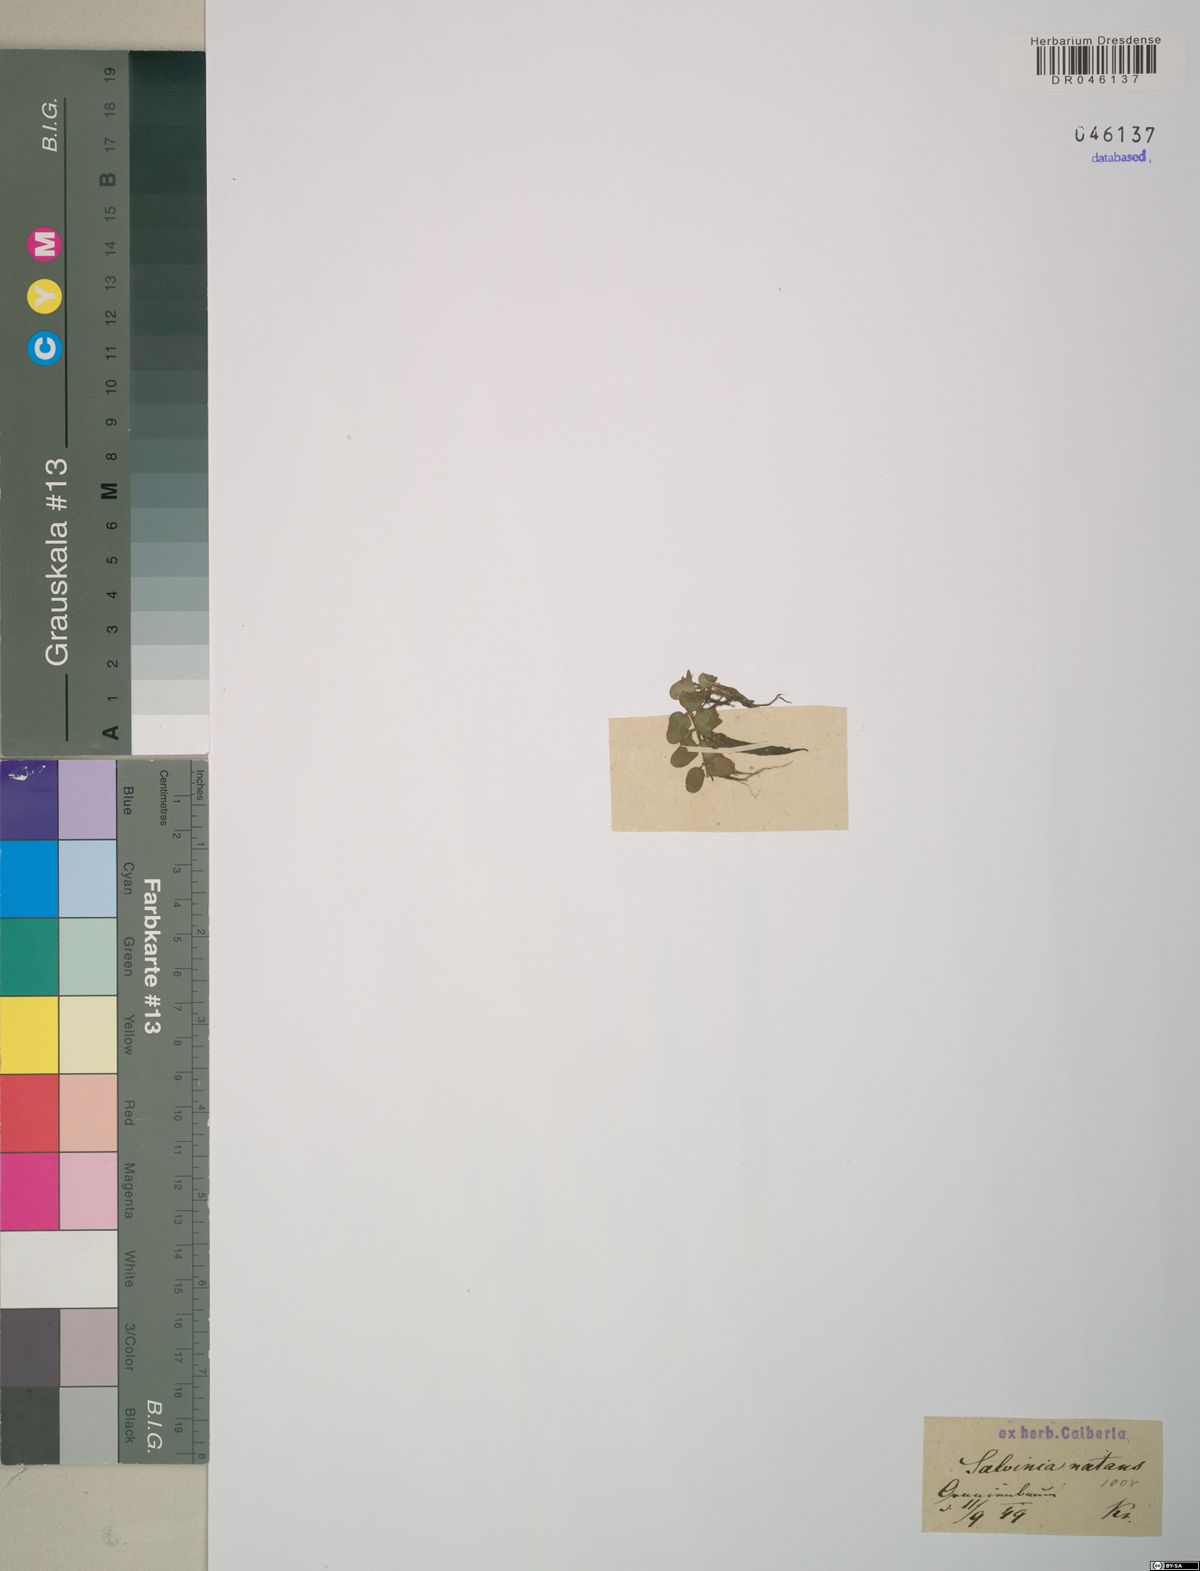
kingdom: Plantae
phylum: Tracheophyta
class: Polypodiopsida
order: Salviniales
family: Salviniaceae
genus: Salvinia
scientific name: Salvinia natans
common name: Floating fern
